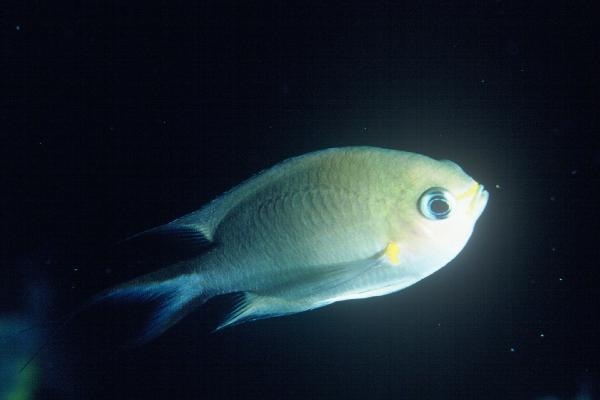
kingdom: Animalia
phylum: Chordata
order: Perciformes
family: Pomacentridae
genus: Chromis
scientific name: Chromis amboinensis
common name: Ambon chromis
